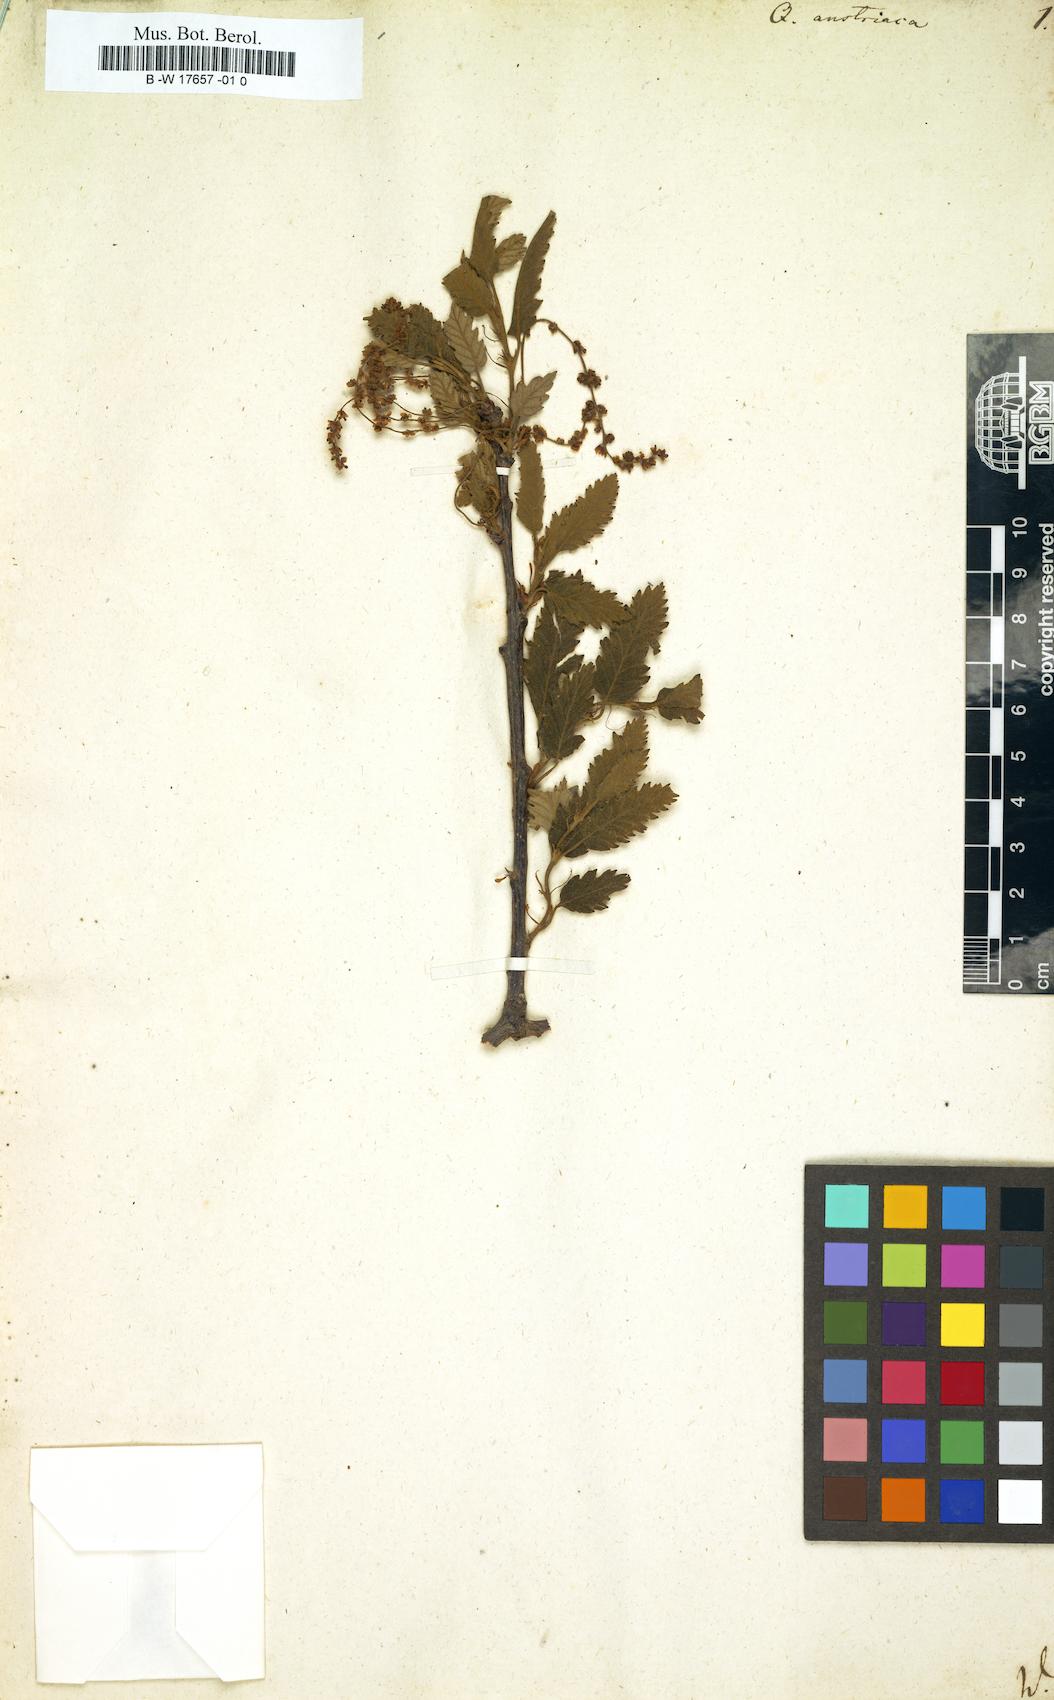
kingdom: Plantae
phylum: Tracheophyta
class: Magnoliopsida
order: Fagales
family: Fagaceae
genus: Quercus
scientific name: Quercus cerris
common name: Turkey oak
